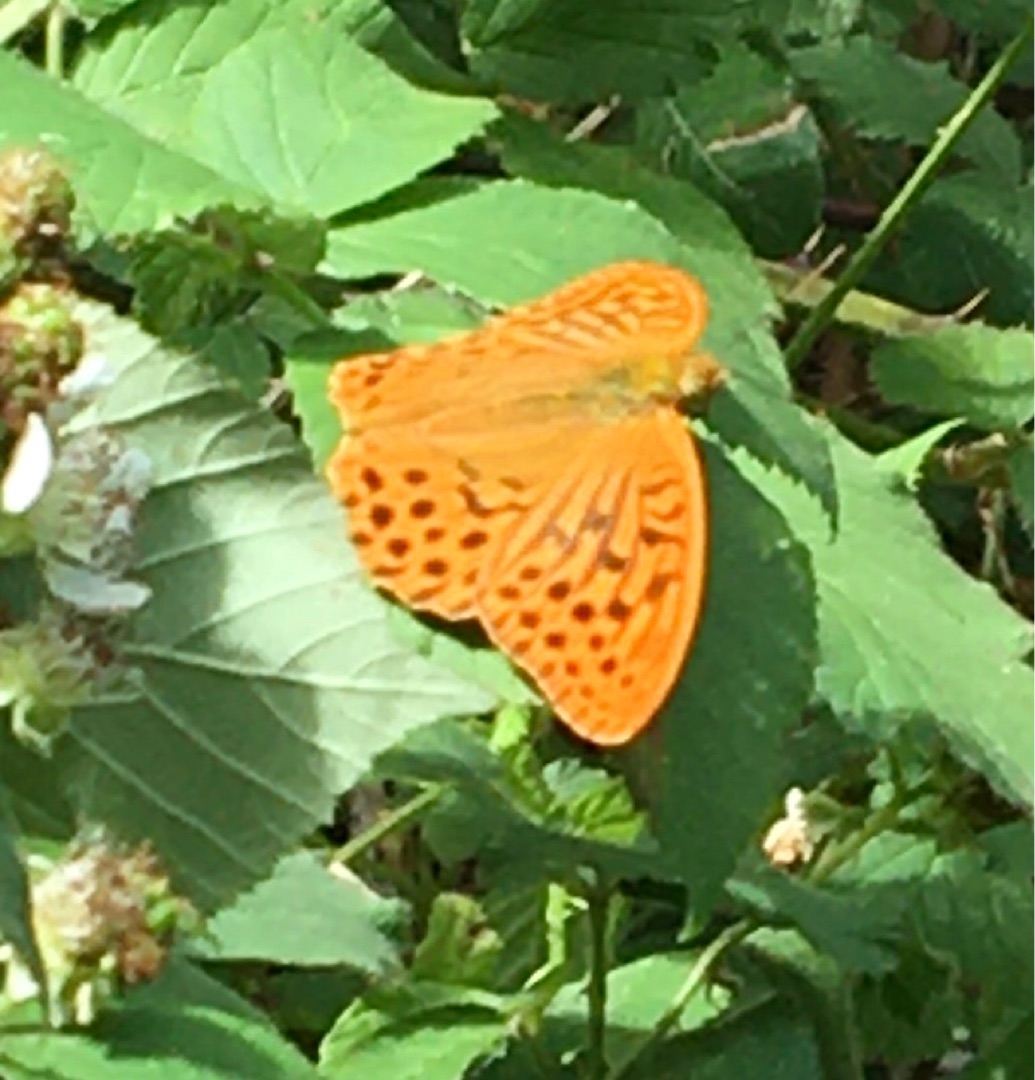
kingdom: Animalia
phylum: Arthropoda
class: Insecta
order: Lepidoptera
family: Nymphalidae
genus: Argynnis
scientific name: Argynnis paphia
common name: Kejserkåbe
